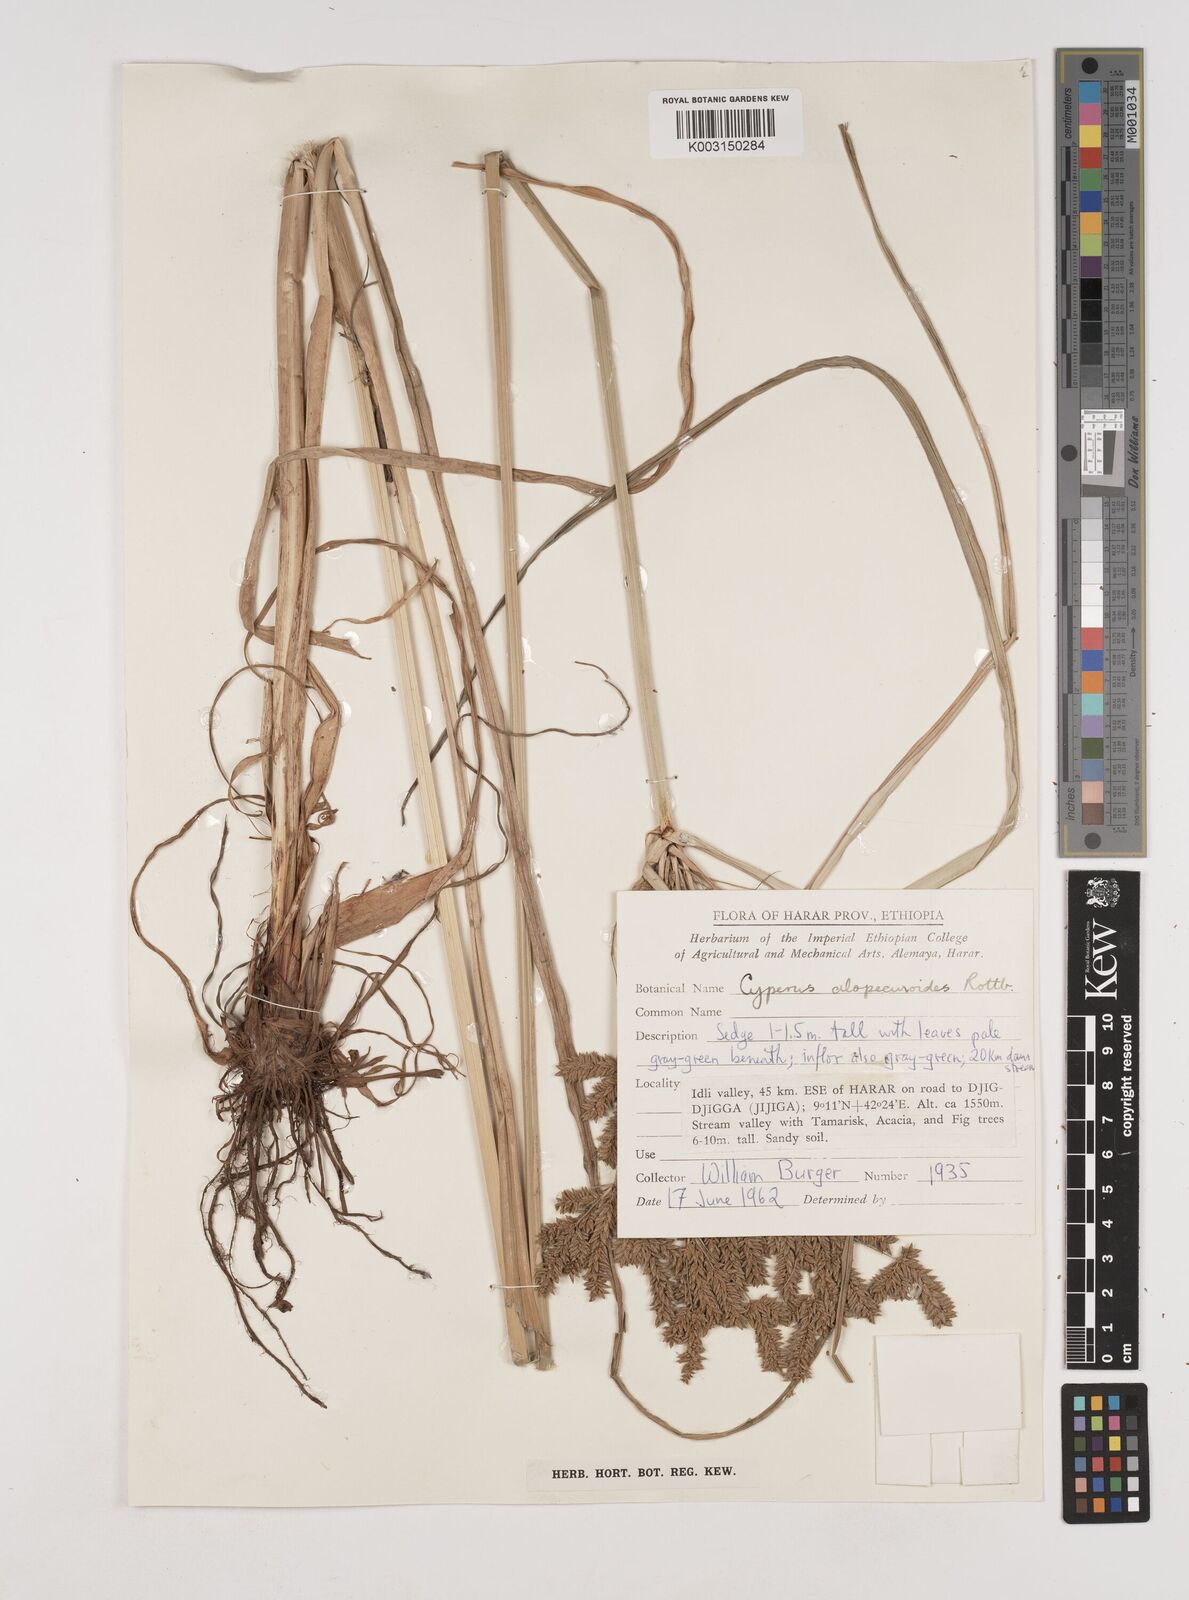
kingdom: Plantae
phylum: Tracheophyta
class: Liliopsida
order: Poales
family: Cyperaceae
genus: Cyperus
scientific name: Cyperus alopecuroides
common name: Foxtail flatsedge
